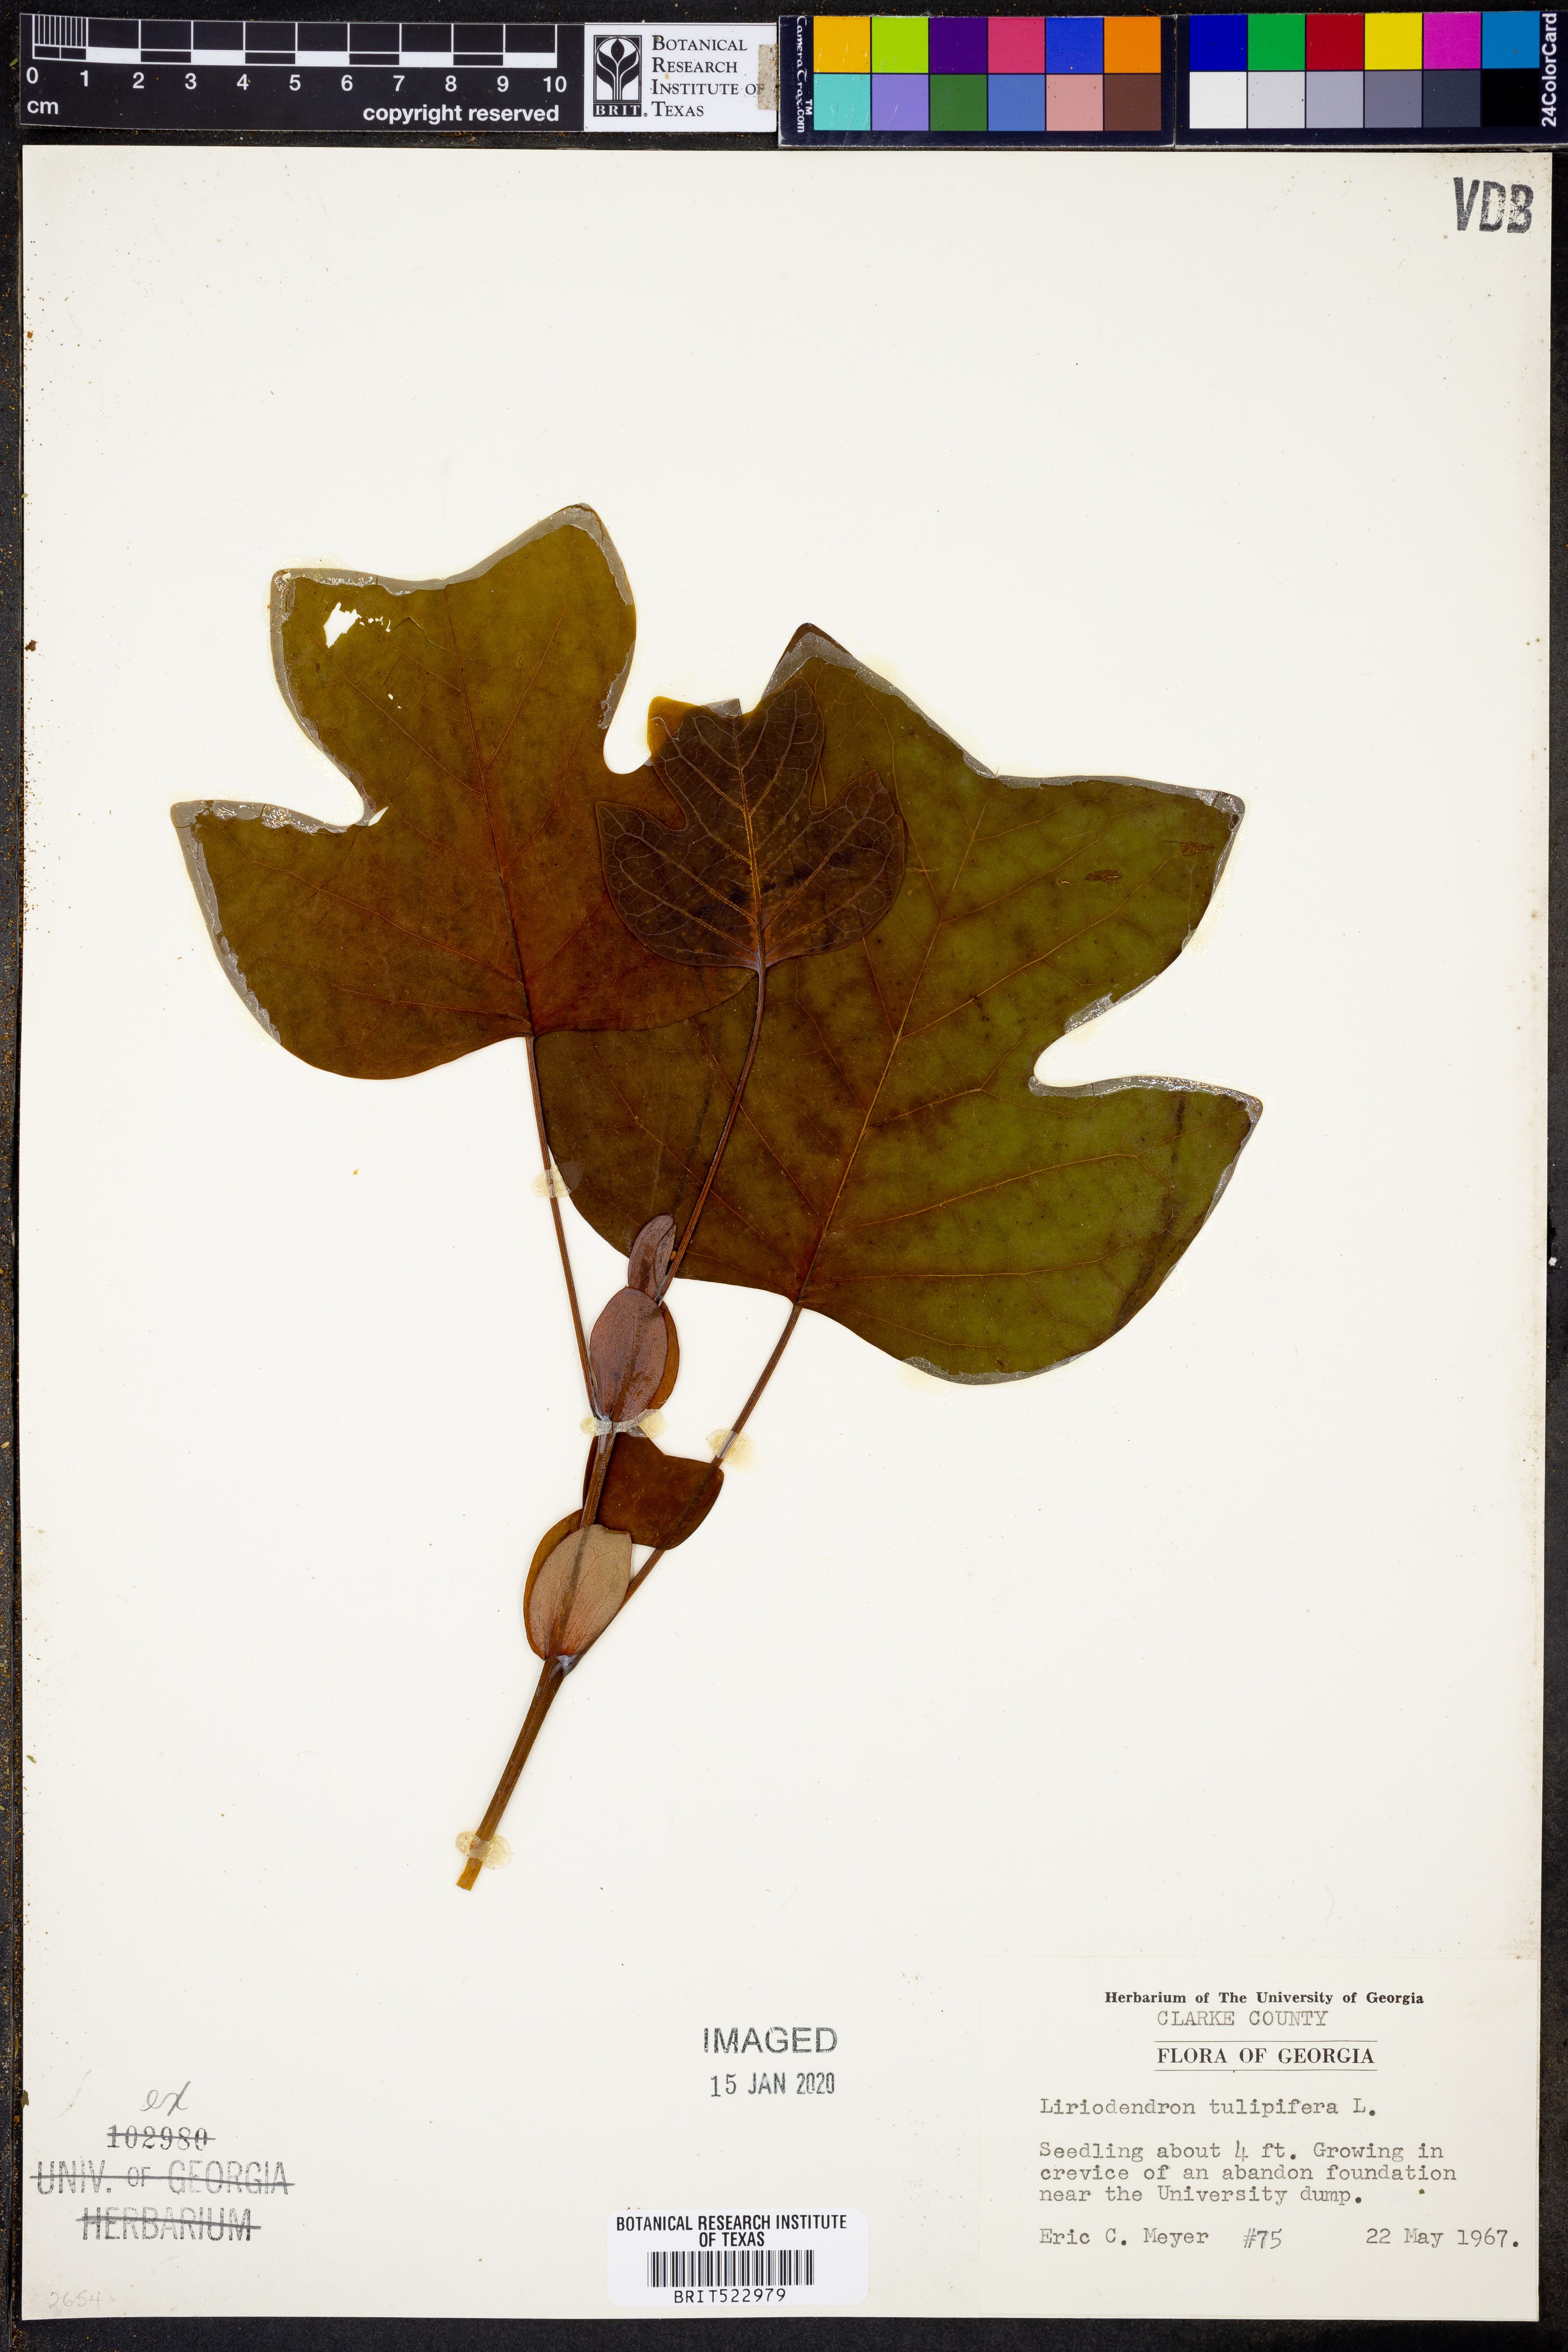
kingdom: Plantae
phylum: Tracheophyta
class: Magnoliopsida
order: Magnoliales
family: Magnoliaceae
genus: Liriodendron
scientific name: Liriodendron tulipifera
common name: Tulip tree
